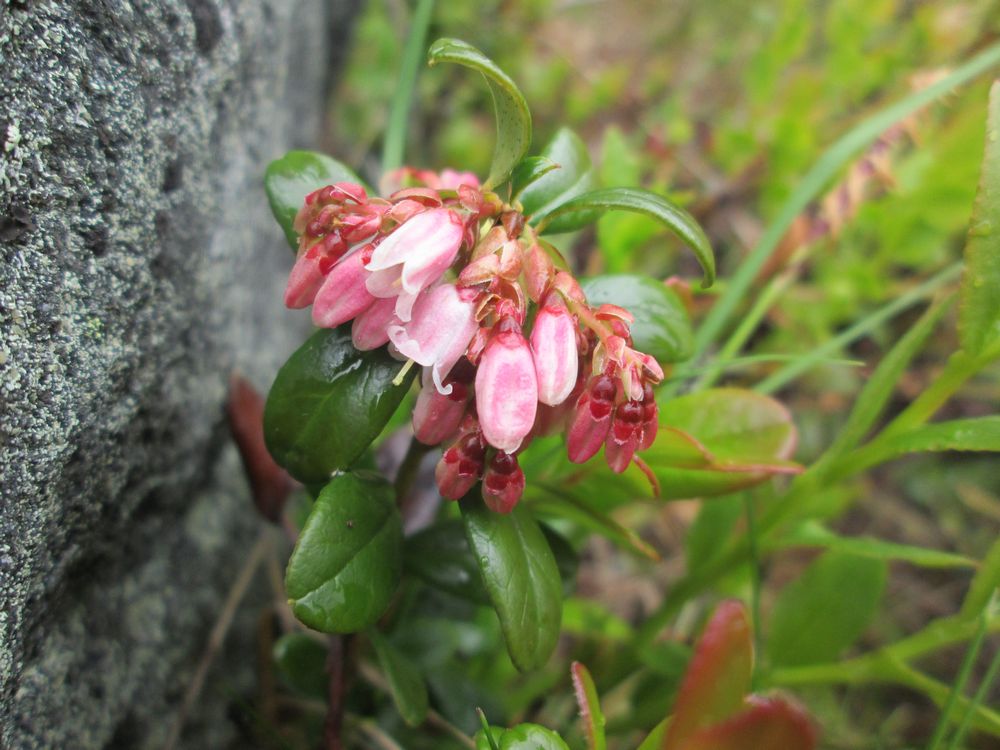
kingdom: Plantae
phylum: Tracheophyta
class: Magnoliopsida
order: Ericales
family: Ericaceae
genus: Vaccinium
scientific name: Vaccinium vitis-idaea
